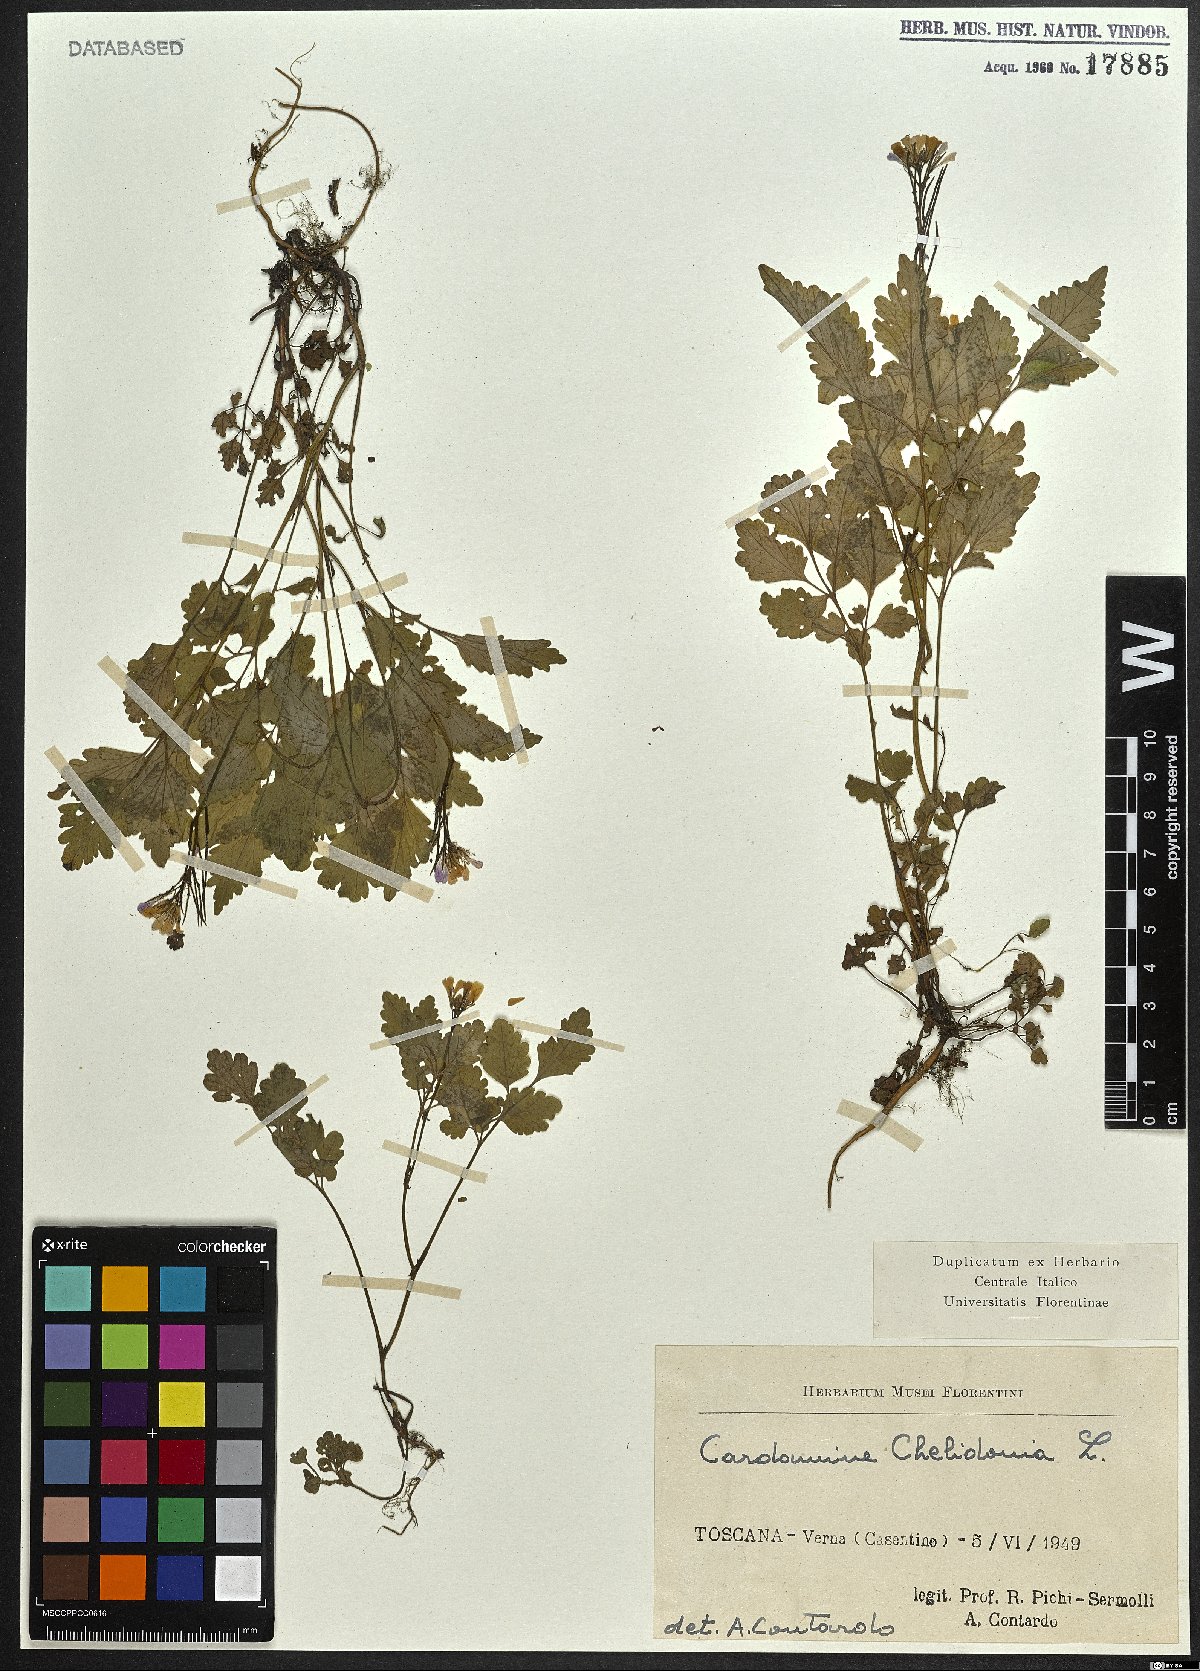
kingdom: Plantae
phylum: Tracheophyta
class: Magnoliopsida
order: Brassicales
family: Brassicaceae
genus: Cardamine
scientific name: Cardamine chelidonia
